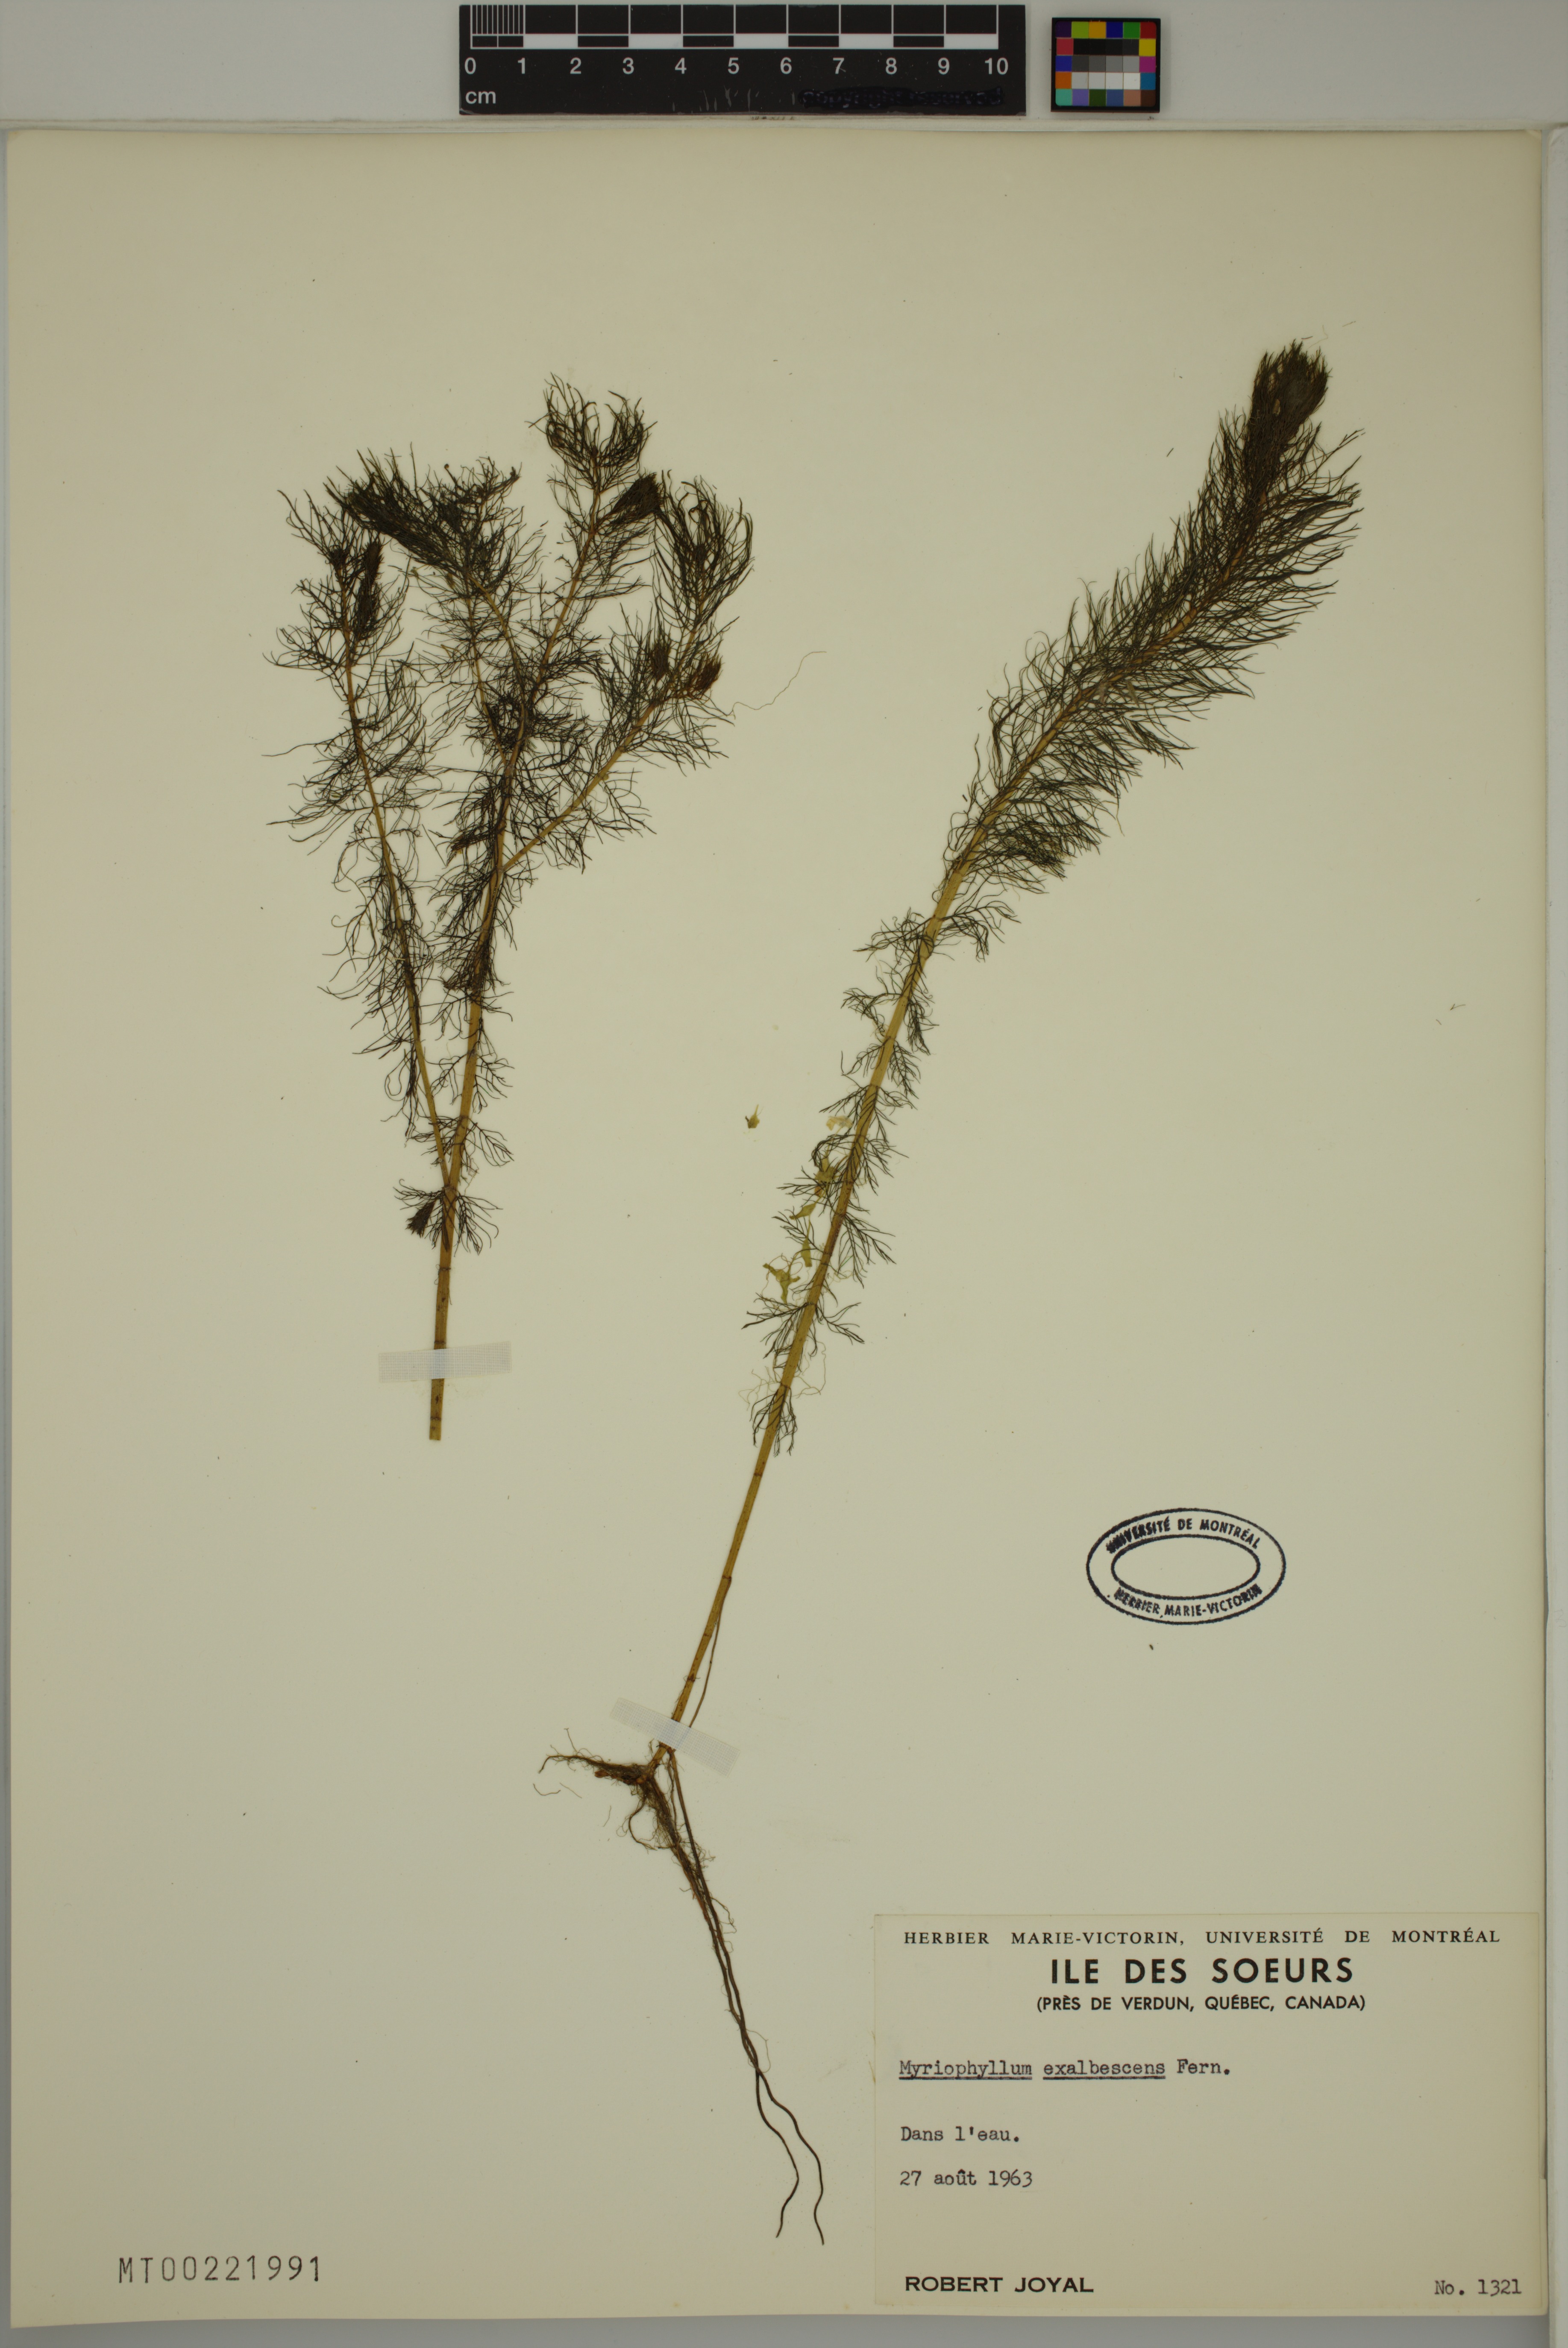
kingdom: Plantae
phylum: Tracheophyta
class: Magnoliopsida
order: Saxifragales
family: Haloragaceae
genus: Myriophyllum
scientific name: Myriophyllum sibiricum
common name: Siberian water-milfoil
